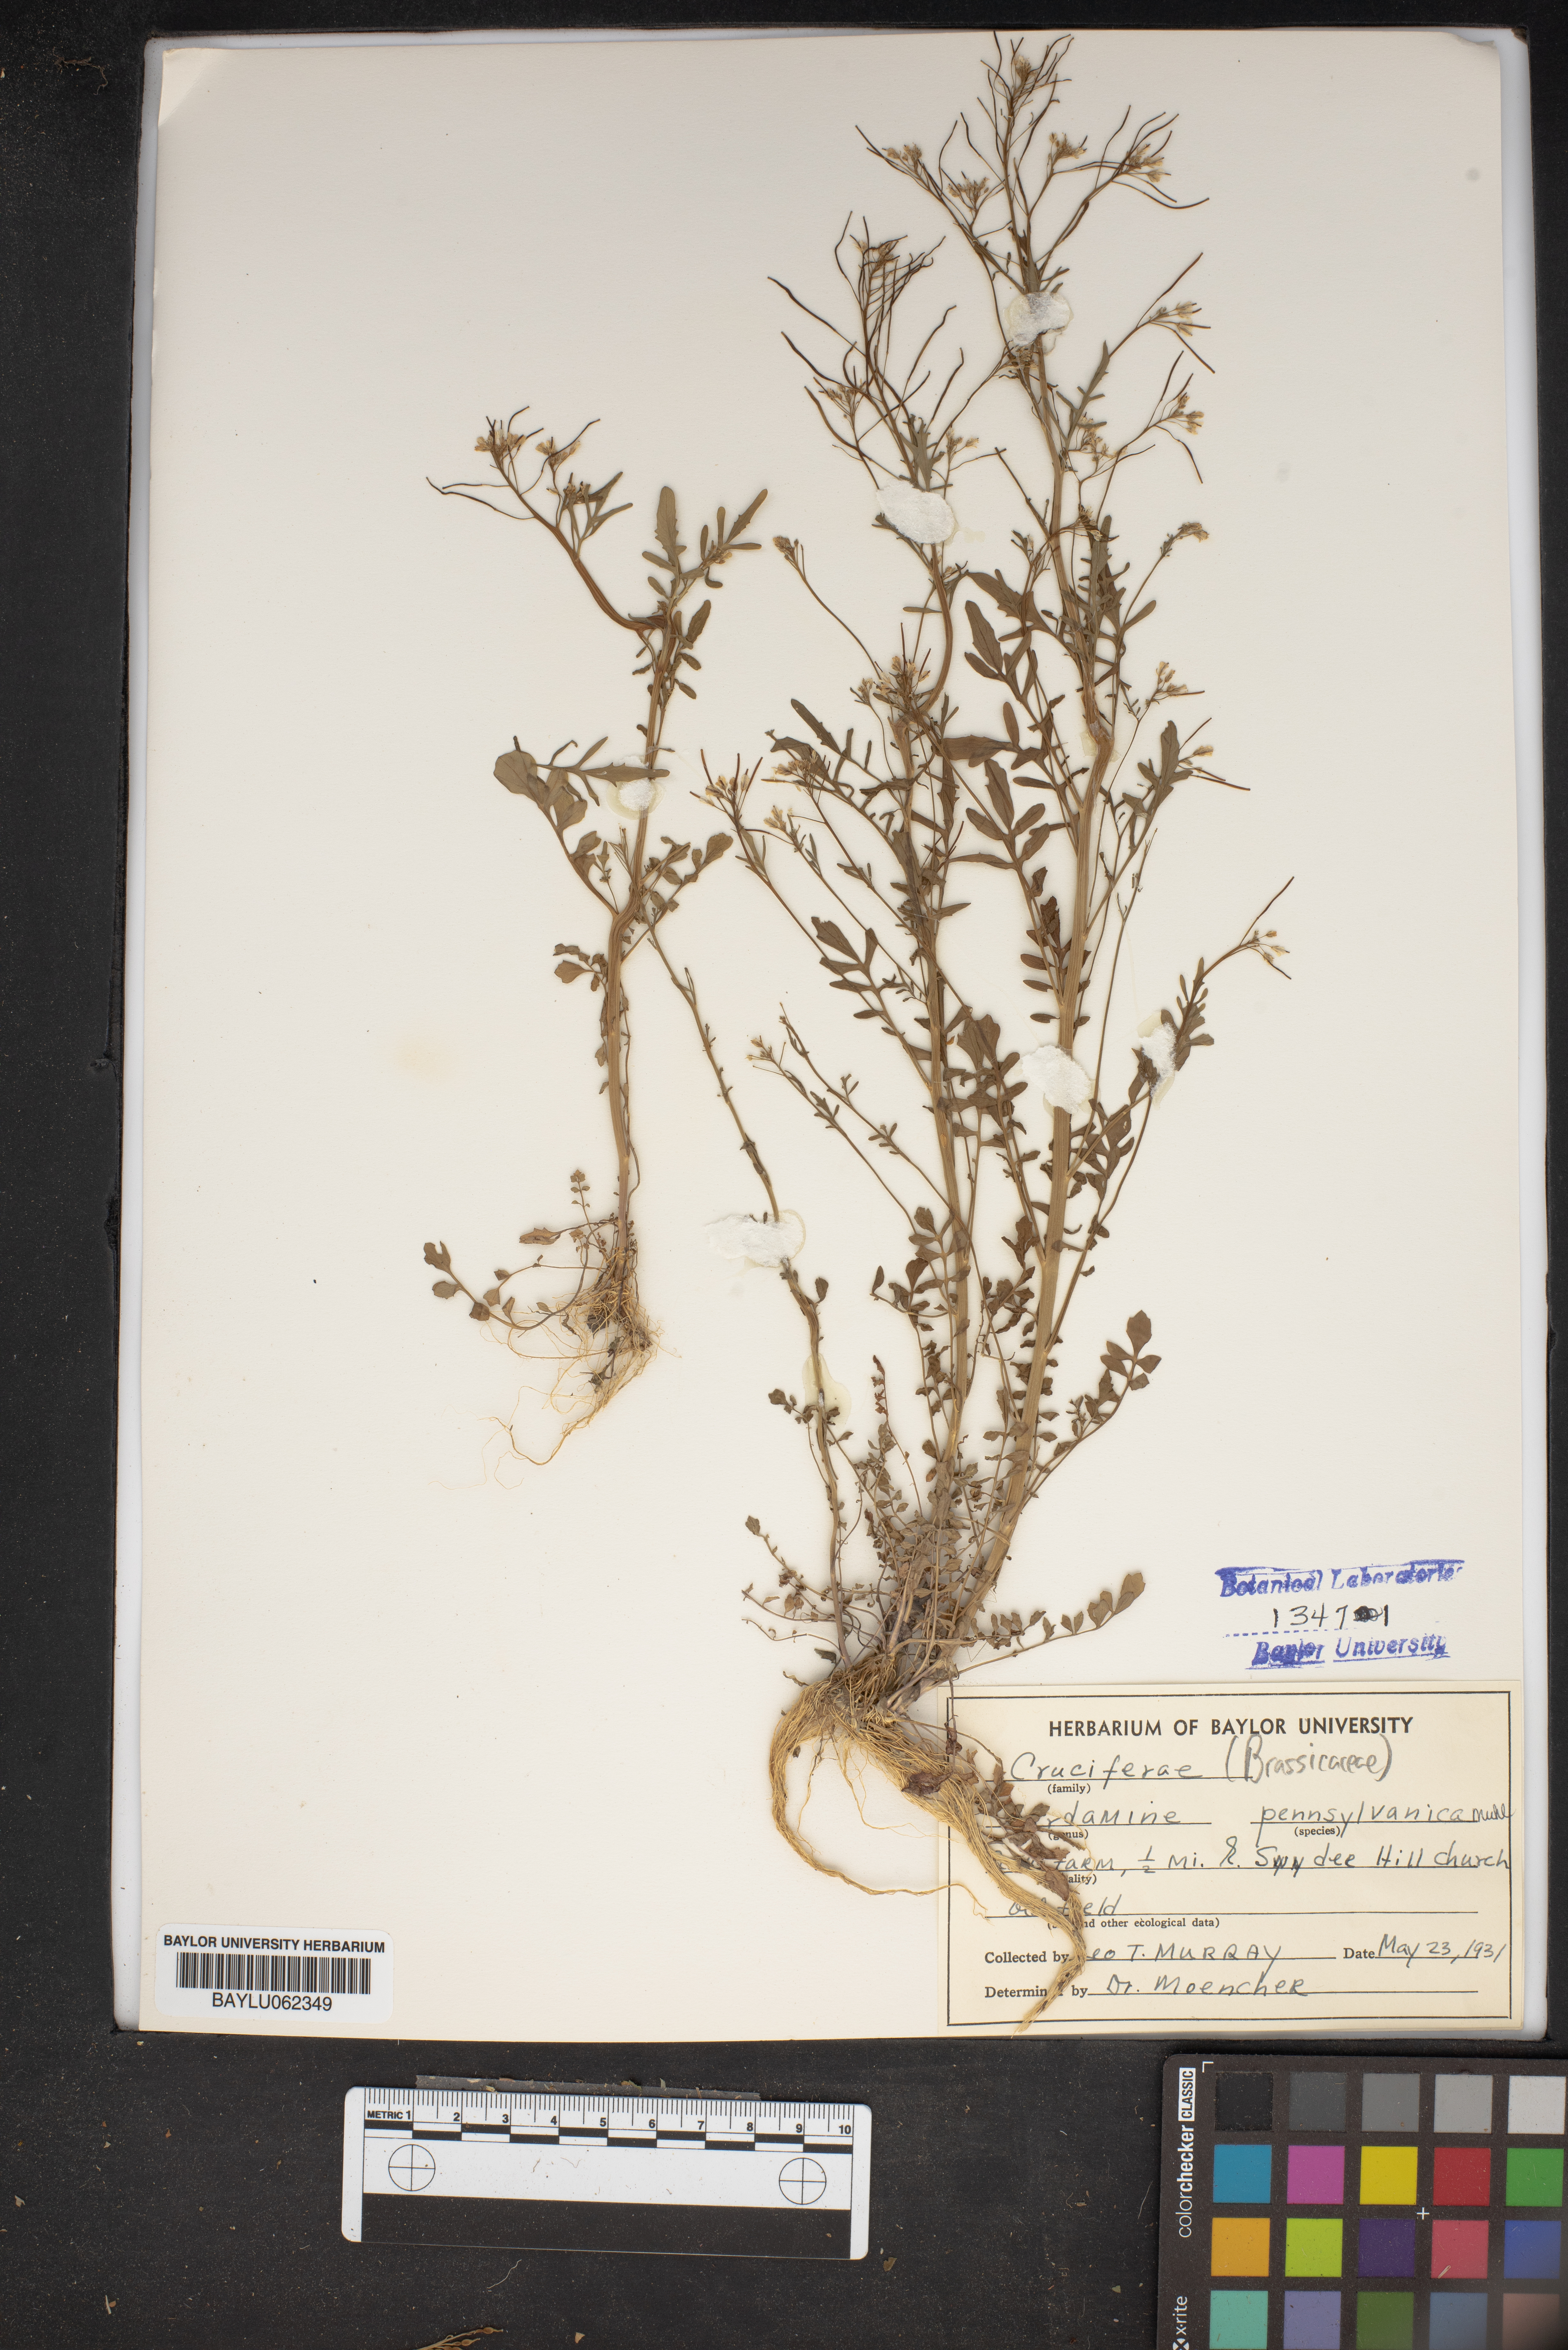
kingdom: Plantae
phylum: Tracheophyta
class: Magnoliopsida
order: Brassicales
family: Brassicaceae
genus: Cardamine
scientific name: Cardamine pensylvanica
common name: Pennsylvania bittercress
